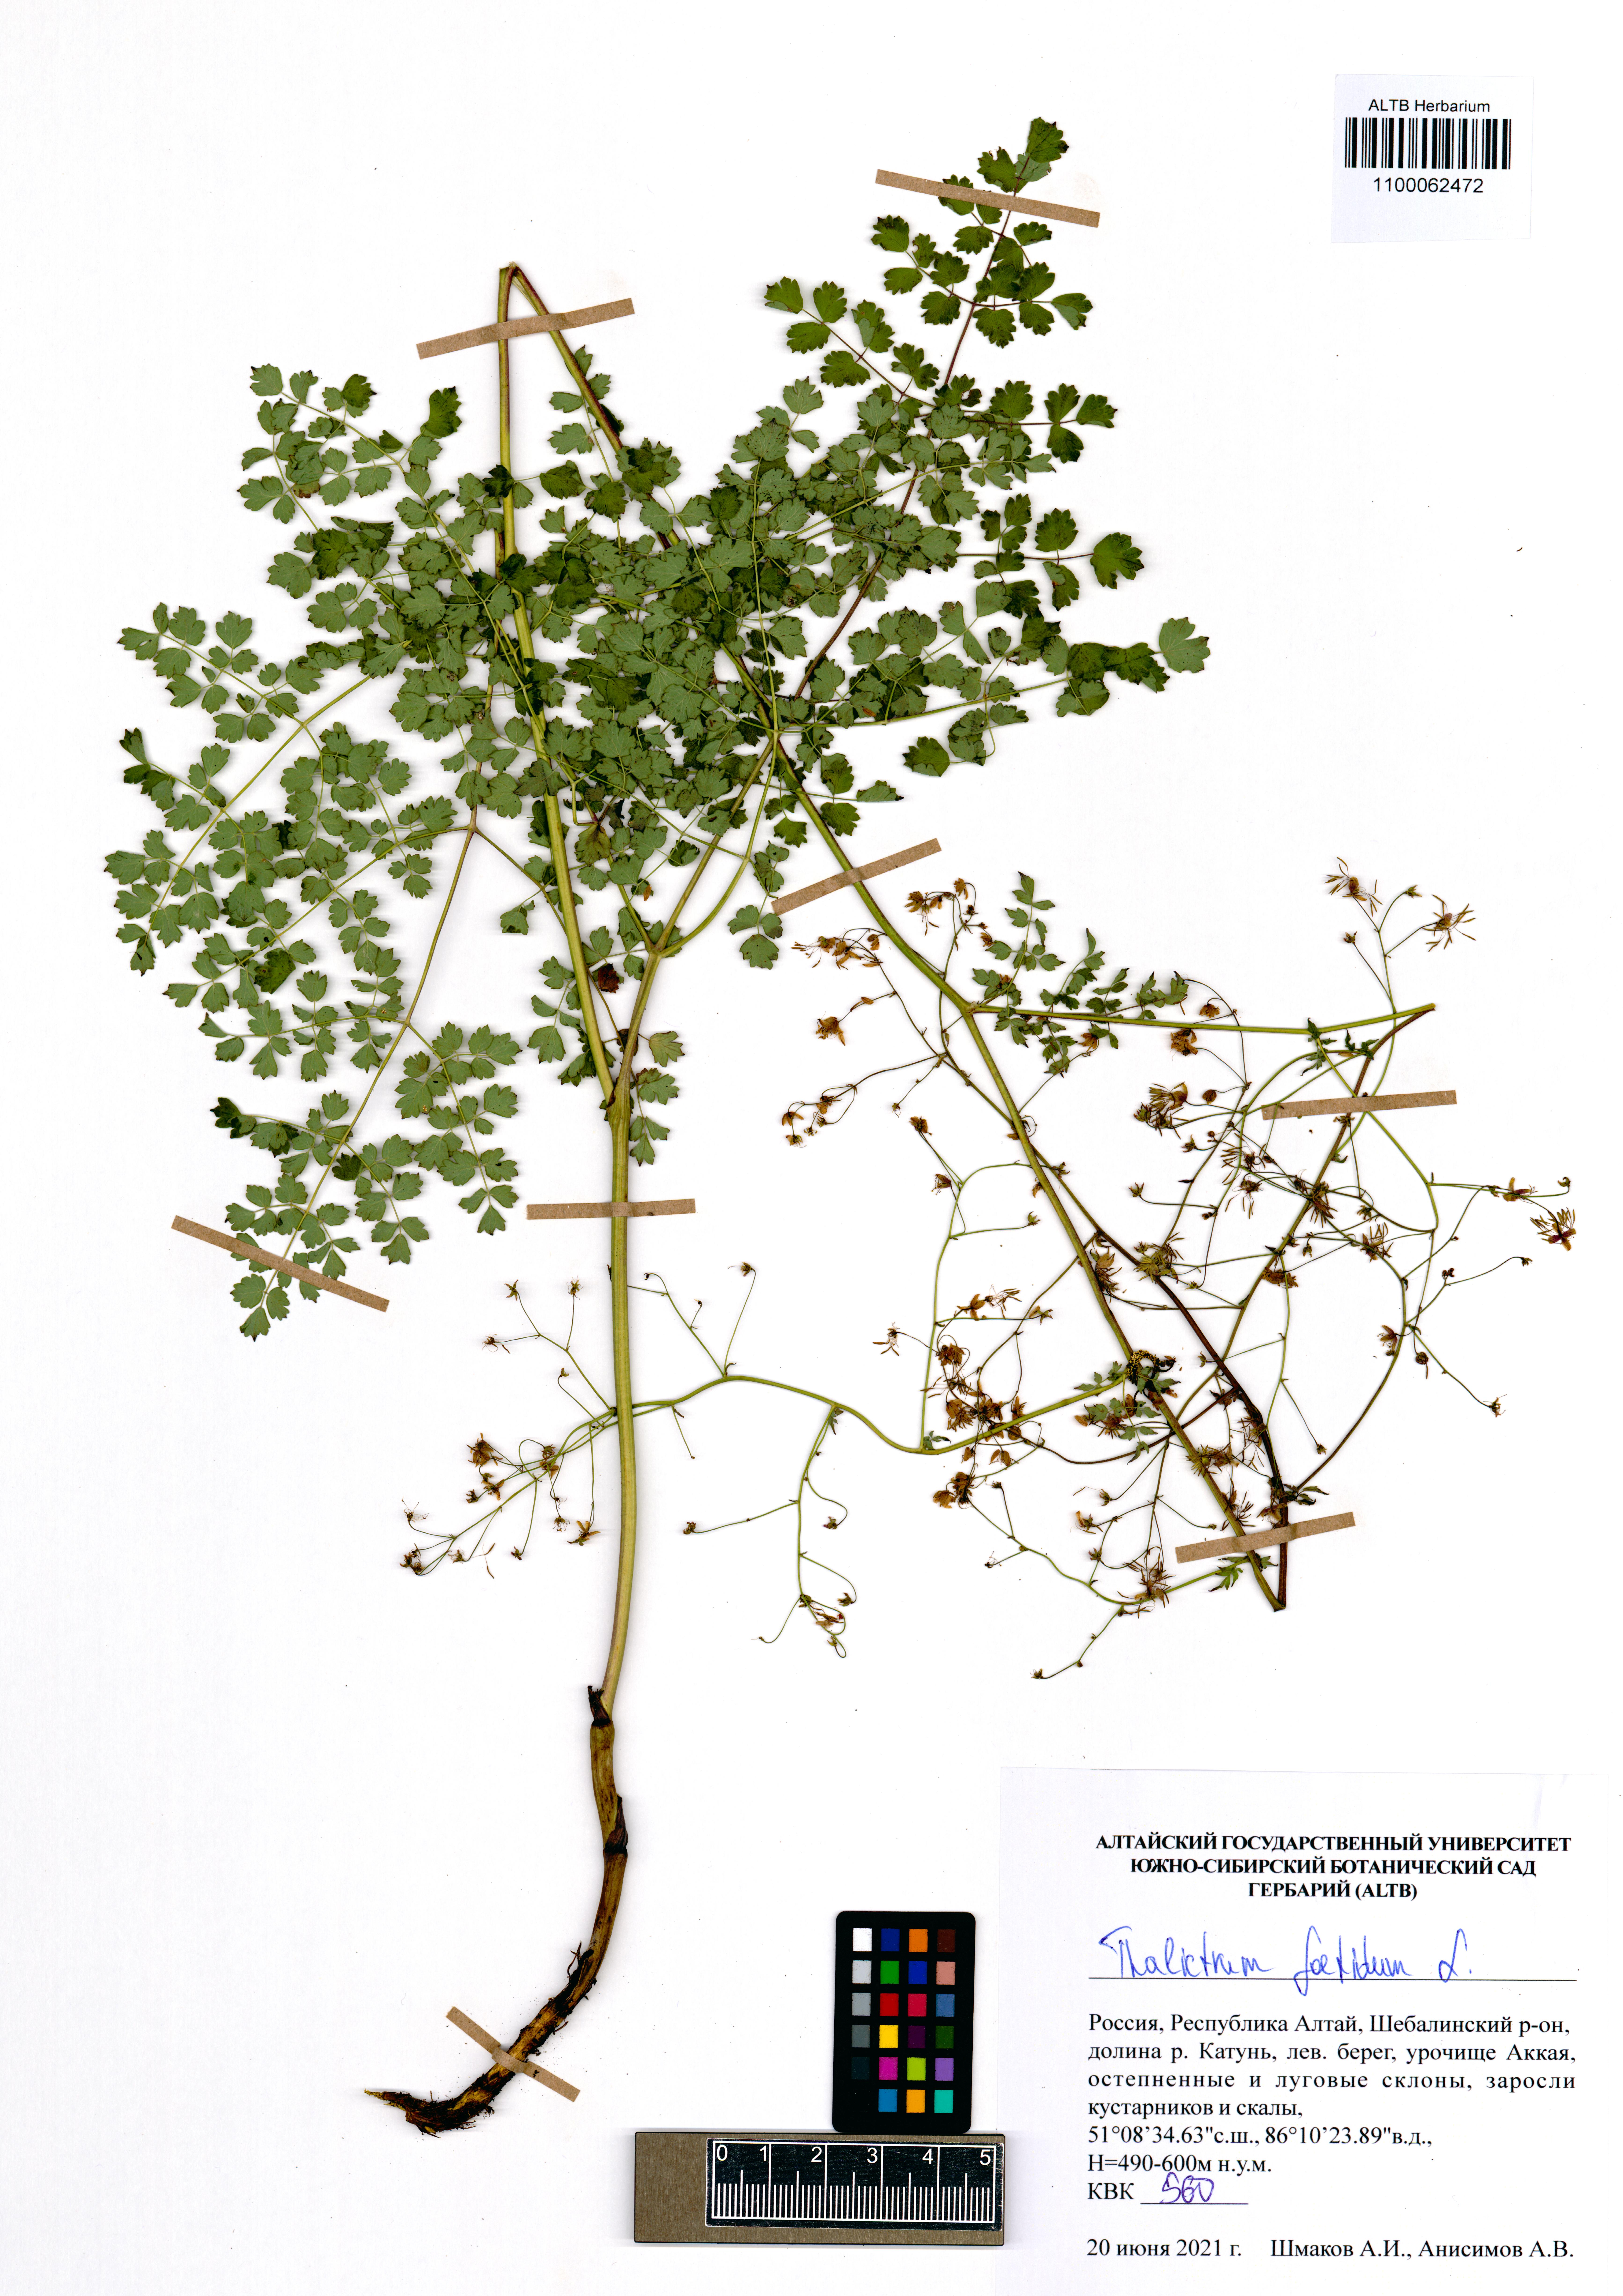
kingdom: Plantae
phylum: Tracheophyta
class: Magnoliopsida
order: Ranunculales
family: Ranunculaceae
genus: Thalictrum
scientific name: Thalictrum foetidum
